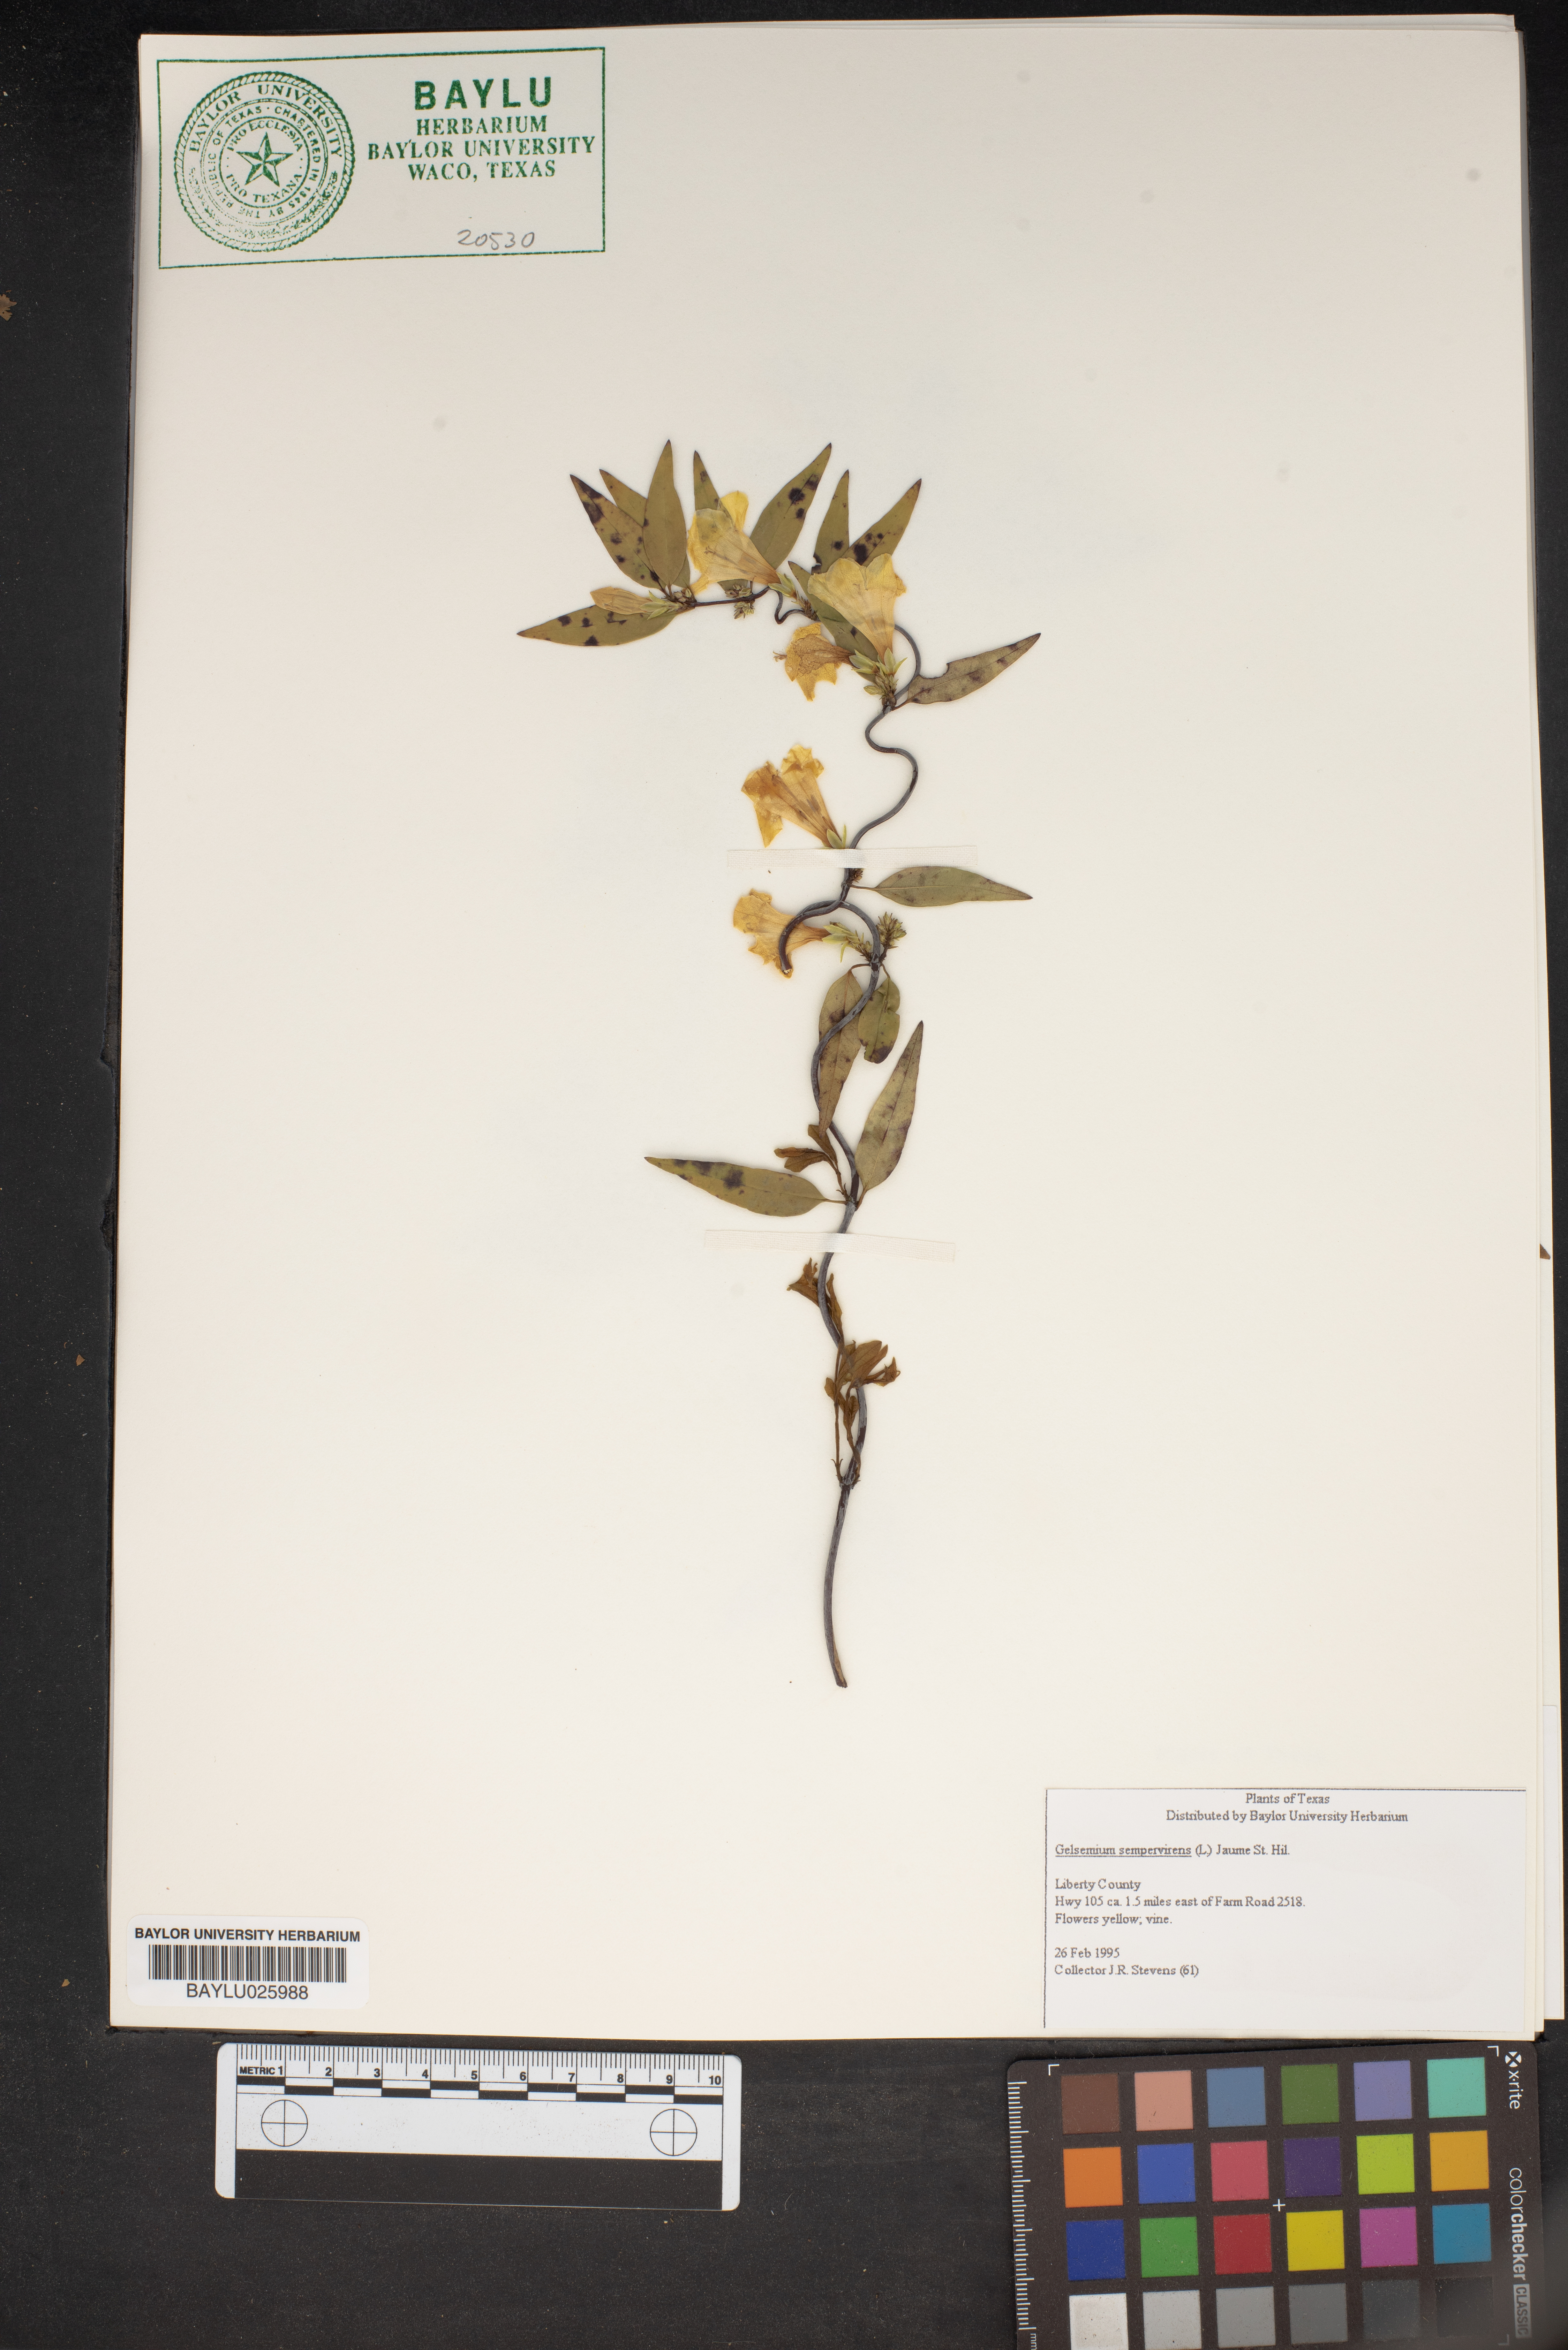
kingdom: Plantae
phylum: Tracheophyta
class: Magnoliopsida
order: Gentianales
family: Gelsemiaceae
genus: Gelsemium
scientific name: Gelsemium sempervirens
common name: Carolina-jasmine
